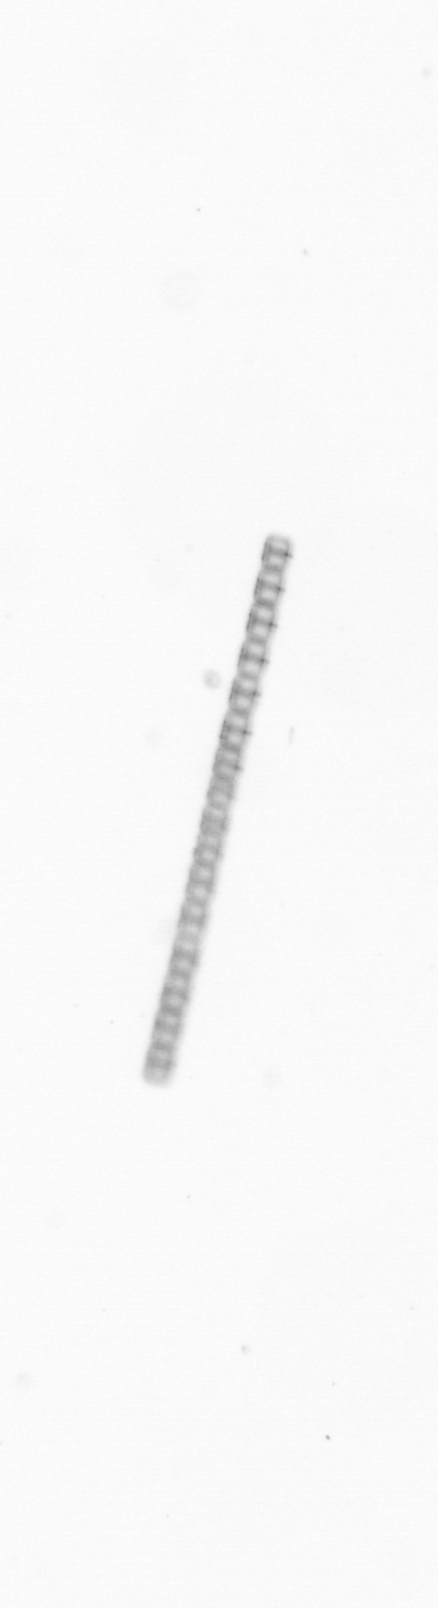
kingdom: Chromista
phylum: Ochrophyta
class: Bacillariophyceae
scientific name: Bacillariophyceae
